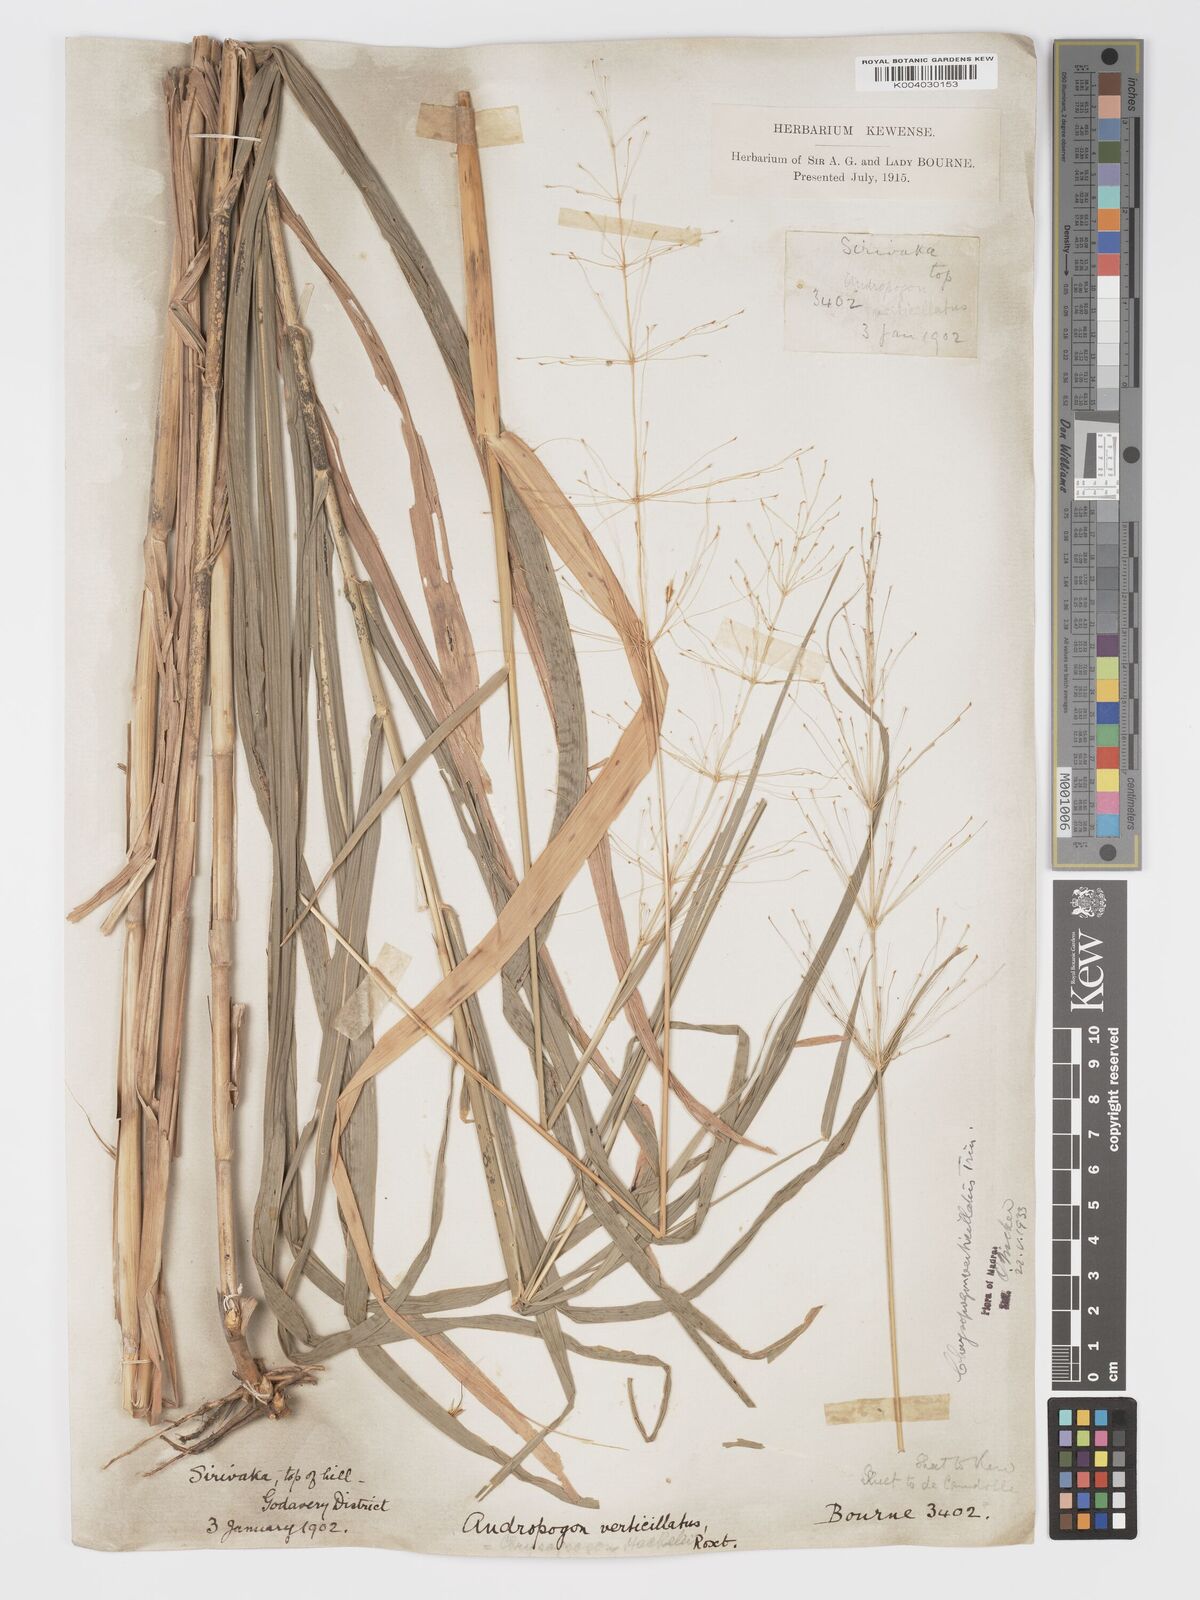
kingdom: Plantae
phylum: Tracheophyta
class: Liliopsida
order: Poales
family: Poaceae
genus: Chrysopogon
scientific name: Chrysopogon verticillatus
